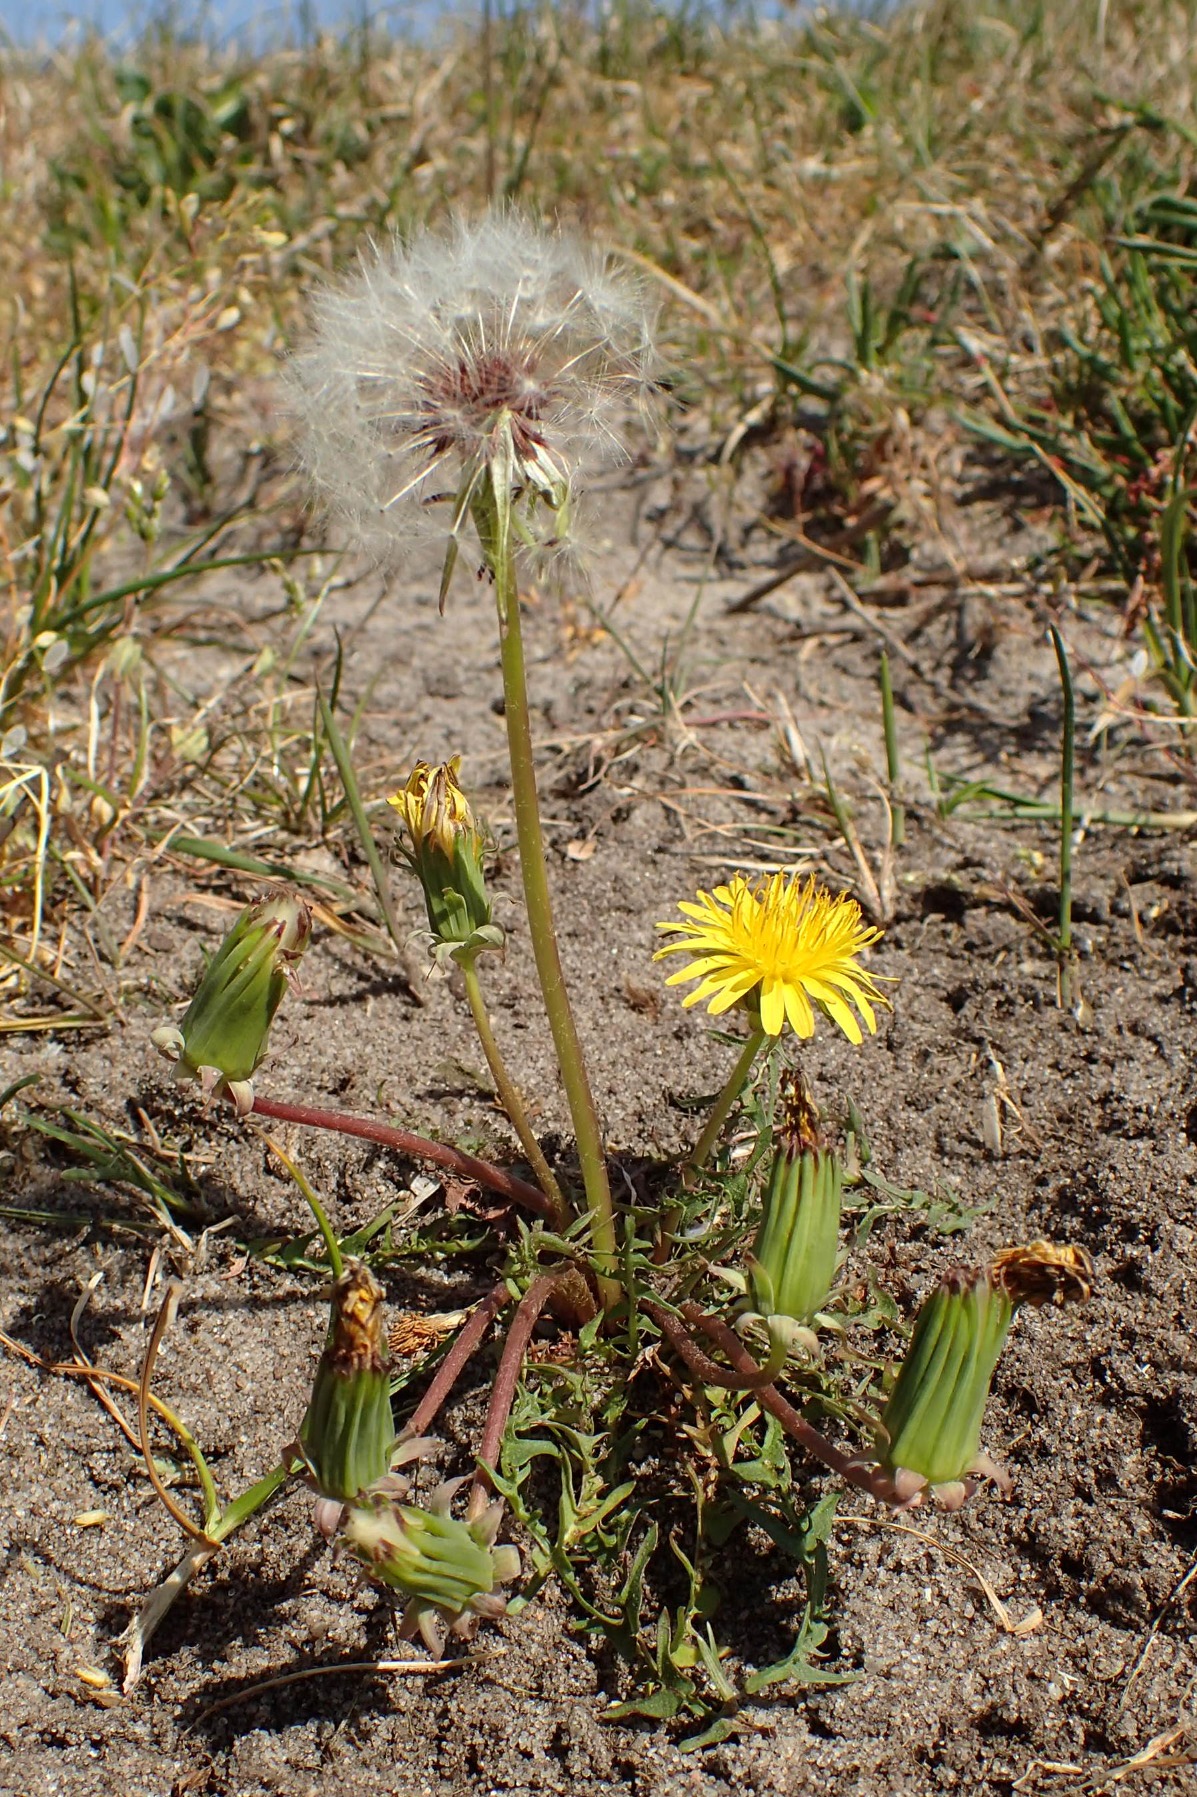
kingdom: Plantae
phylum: Tracheophyta
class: Magnoliopsida
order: Asterales
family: Asteraceae
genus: Taraxacum
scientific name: Taraxacum lacistophyllum
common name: Bakke-sandmælkebøtte
